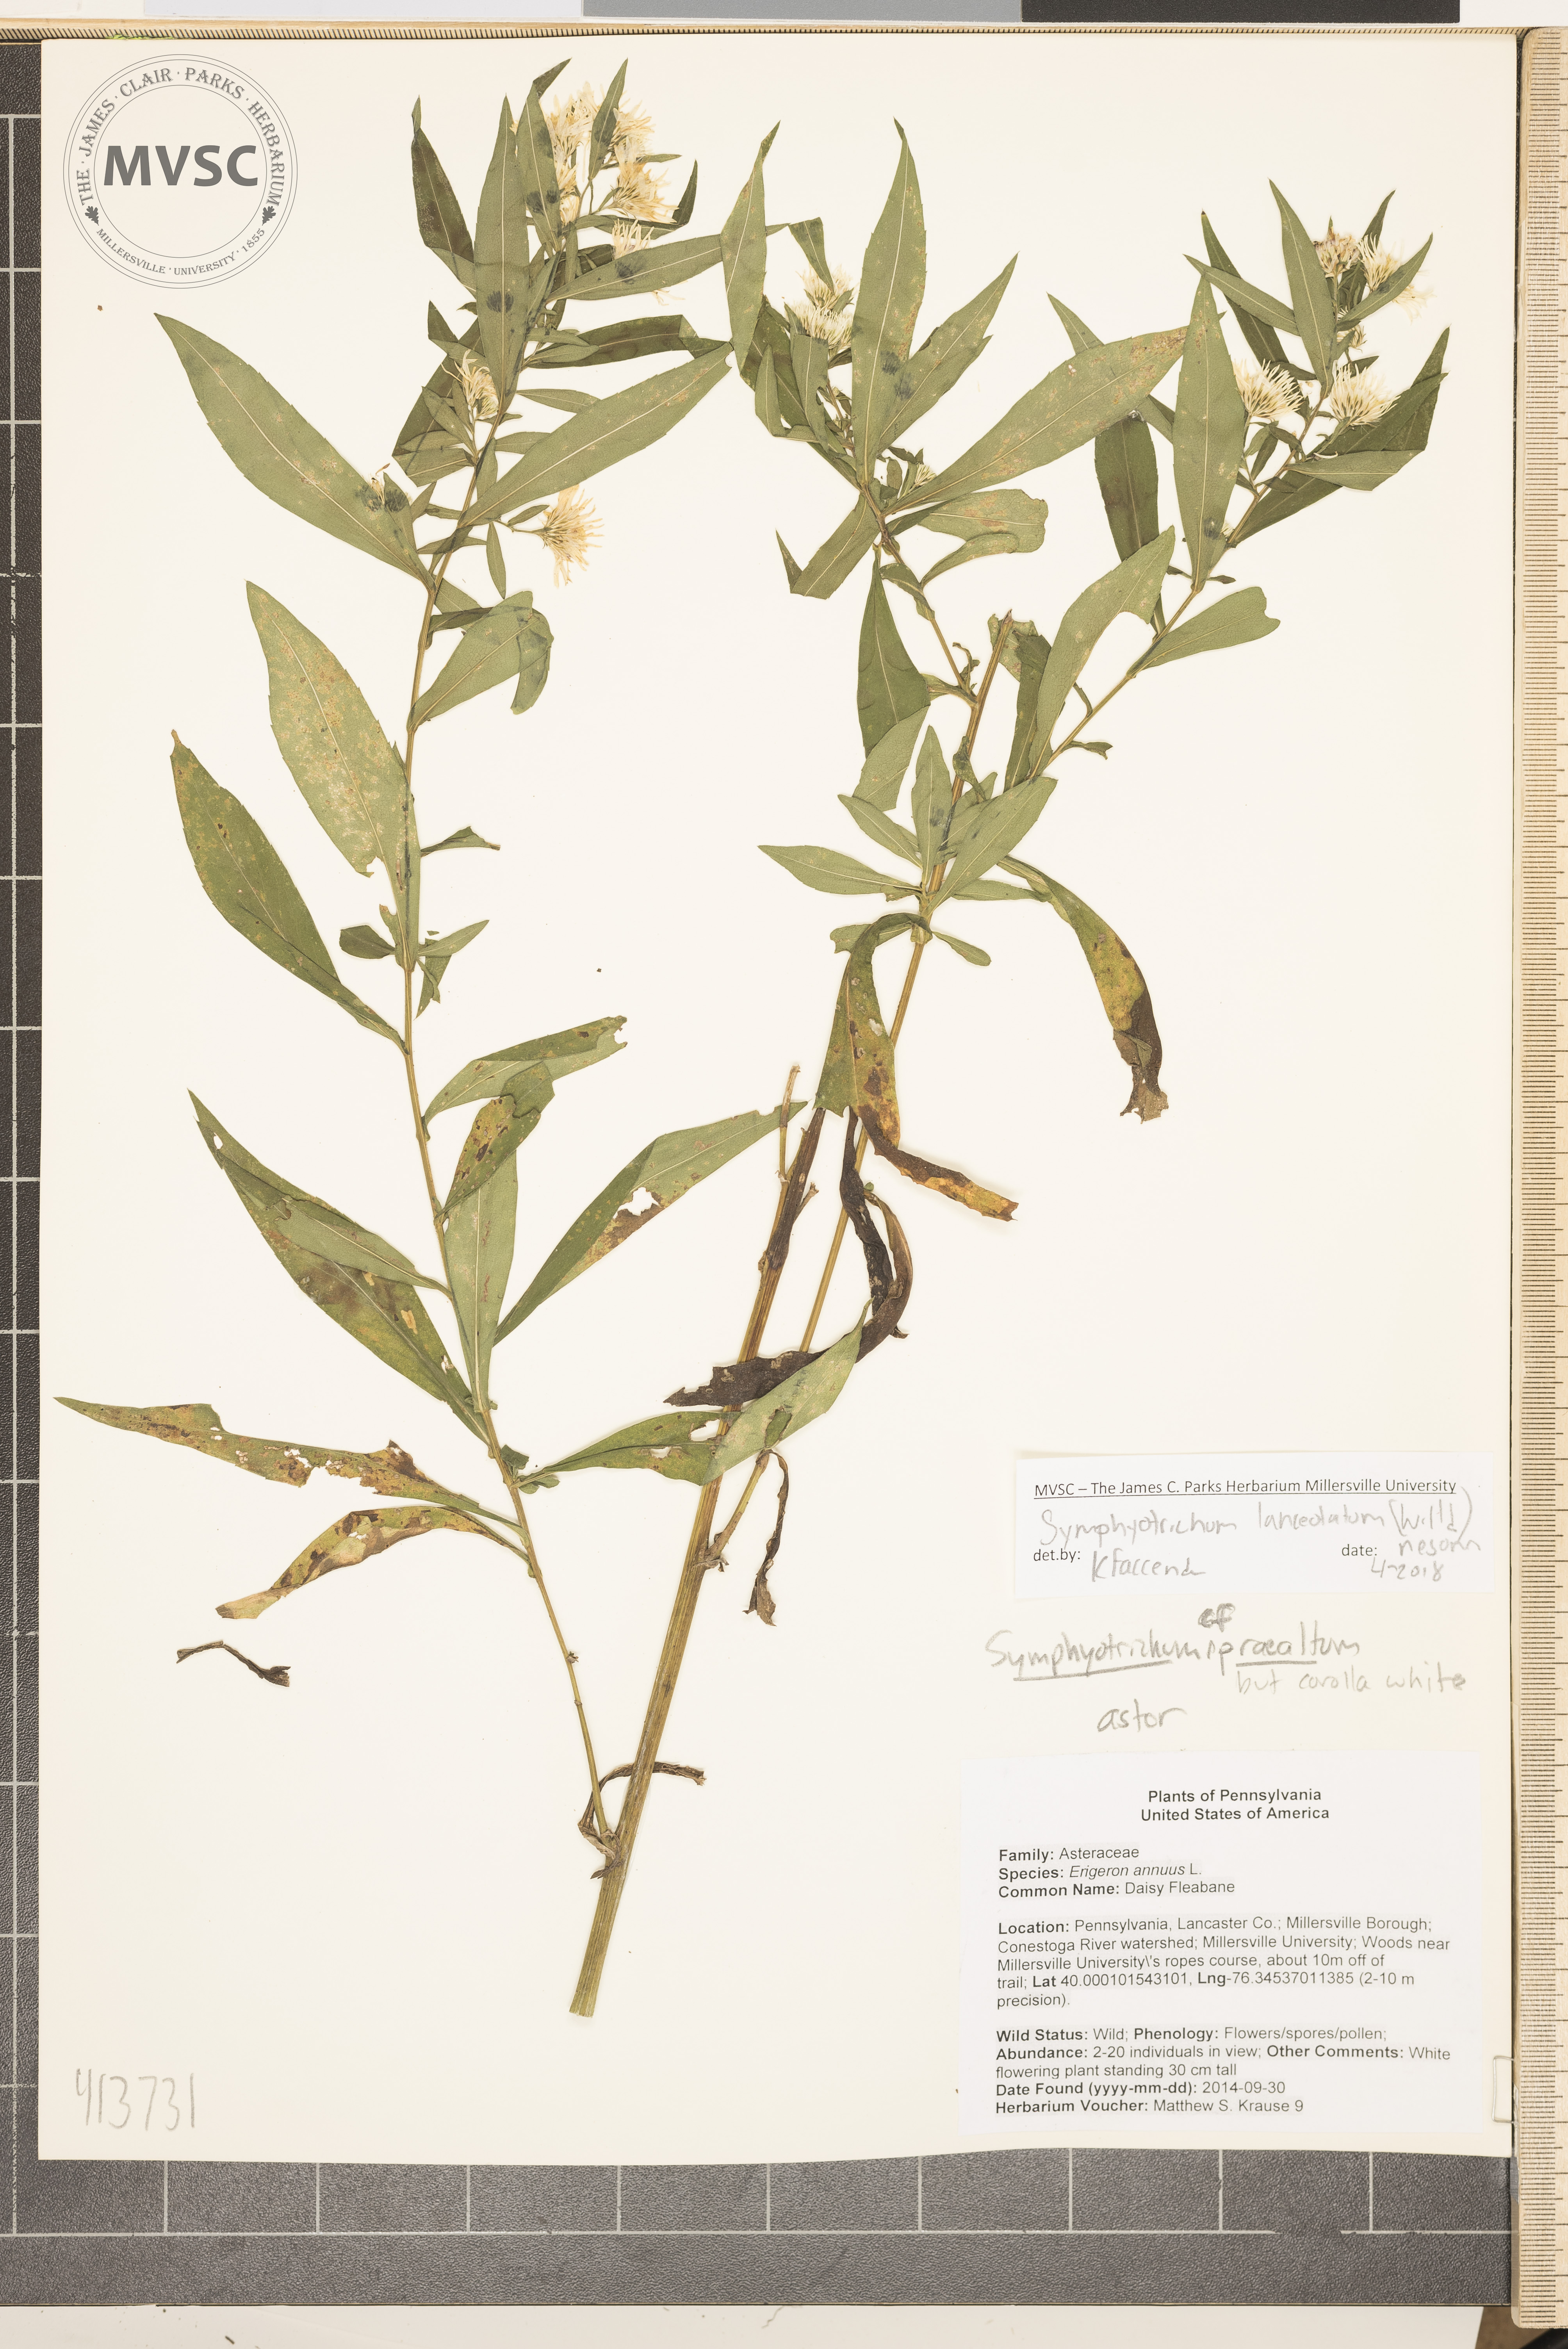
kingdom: Plantae
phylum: Tracheophyta
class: Magnoliopsida
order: Asterales
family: Asteraceae
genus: Symphyotrichum
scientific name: Symphyotrichum lanceolatum
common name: Aster
